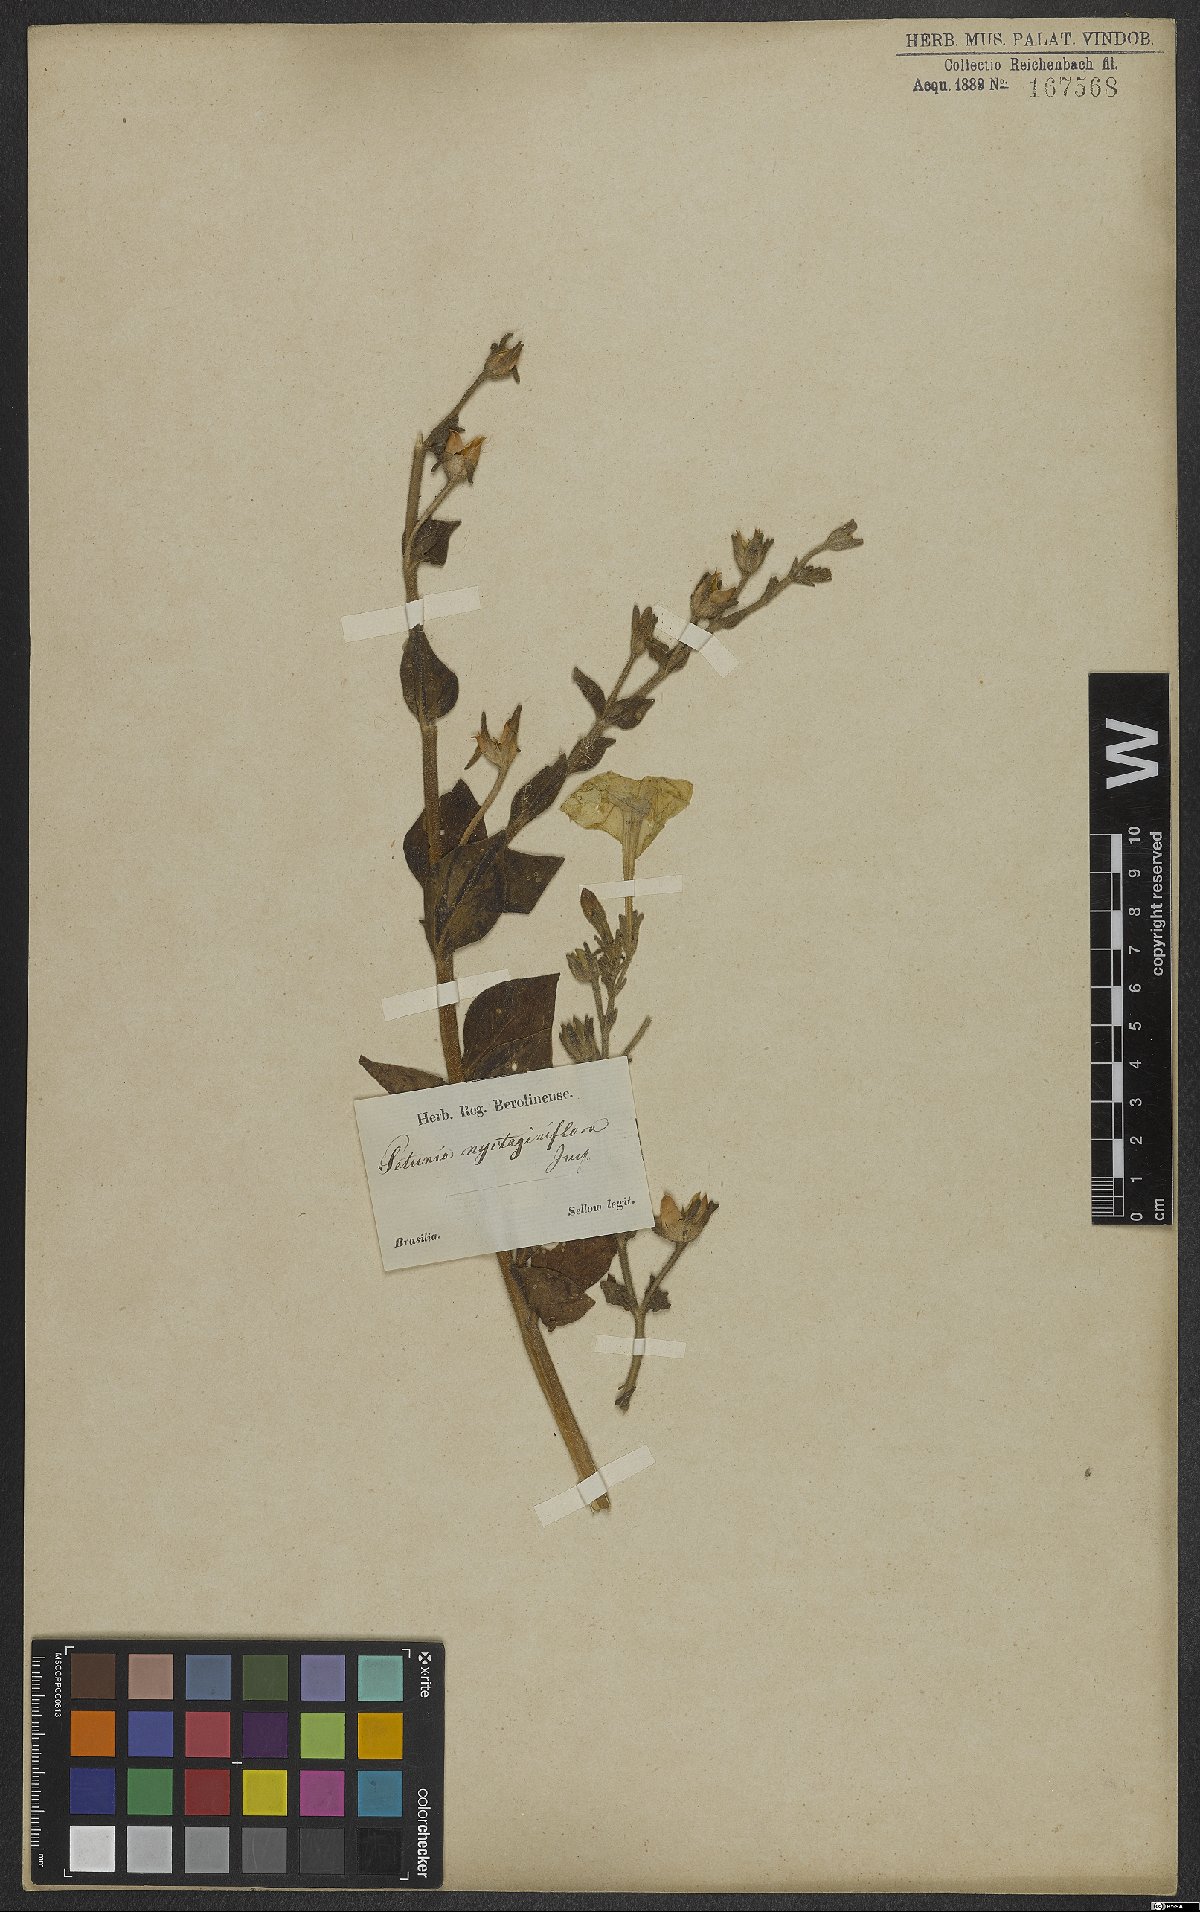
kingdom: Plantae
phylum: Tracheophyta
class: Magnoliopsida
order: Solanales
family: Solanaceae
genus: Petunia
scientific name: Petunia axillaris
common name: Large white petunia
